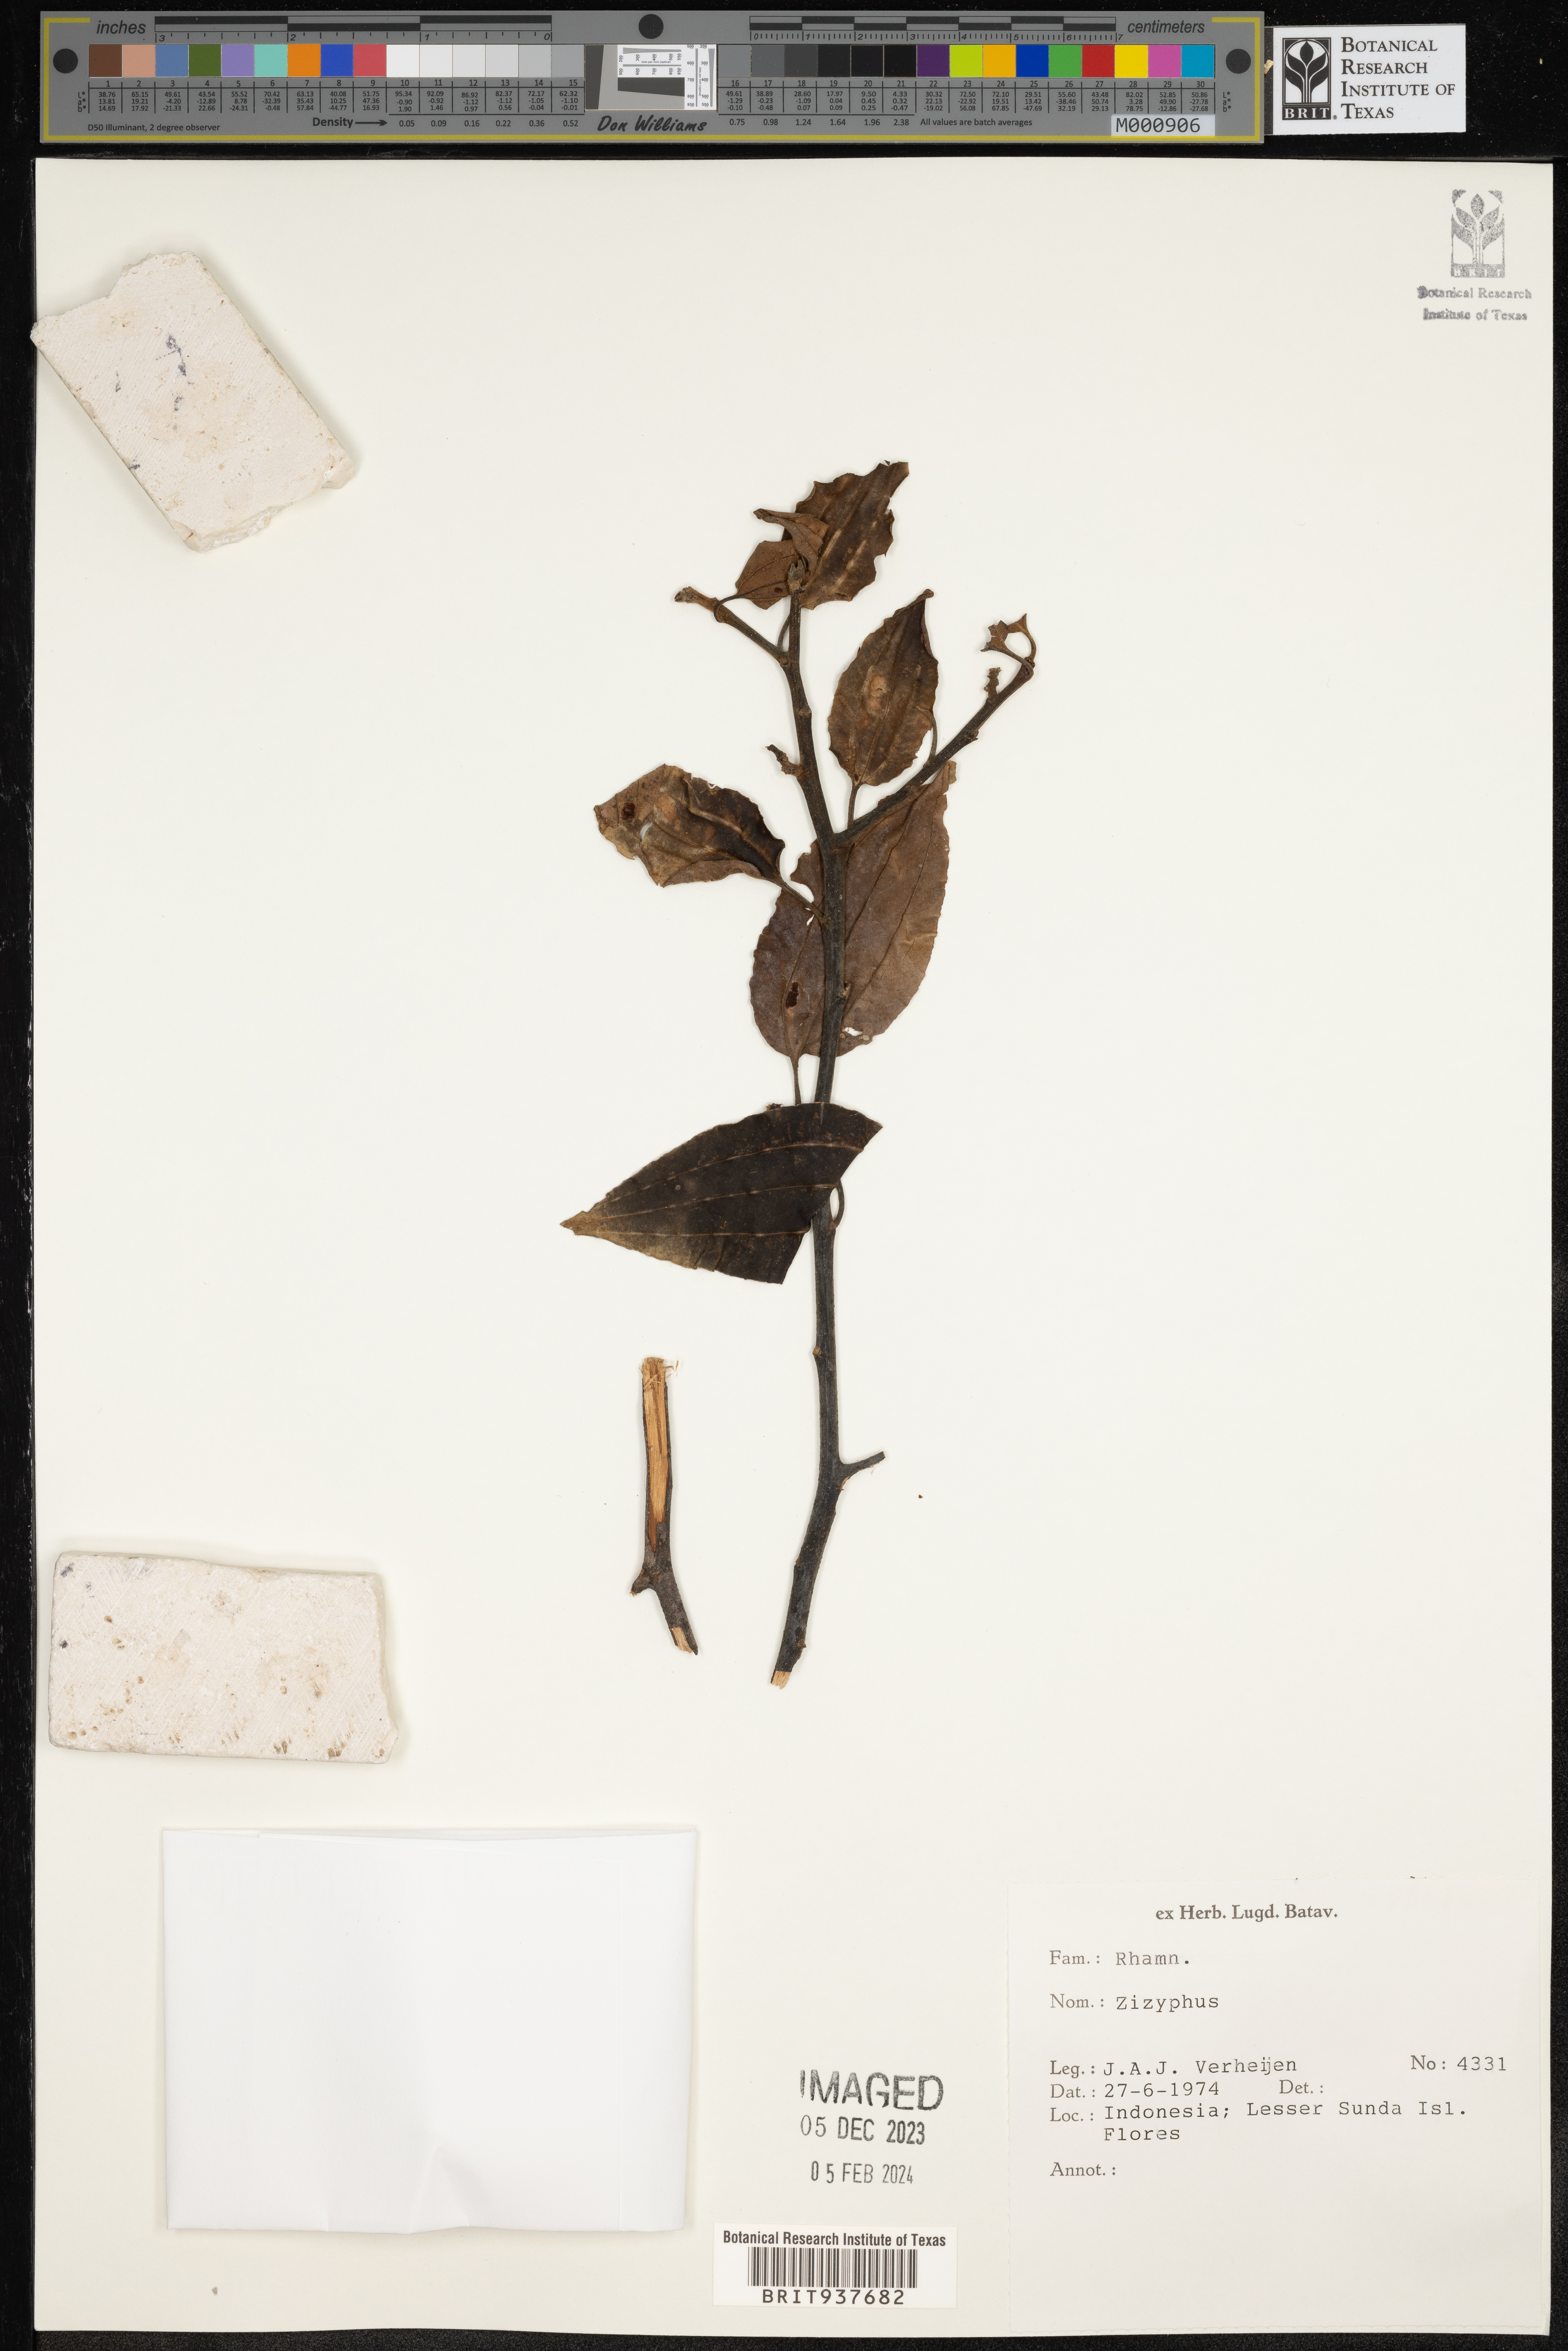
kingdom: Plantae
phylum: Tracheophyta
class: Magnoliopsida
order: Rosales
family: Rhamnaceae
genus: Ziziphus
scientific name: Ziziphus
